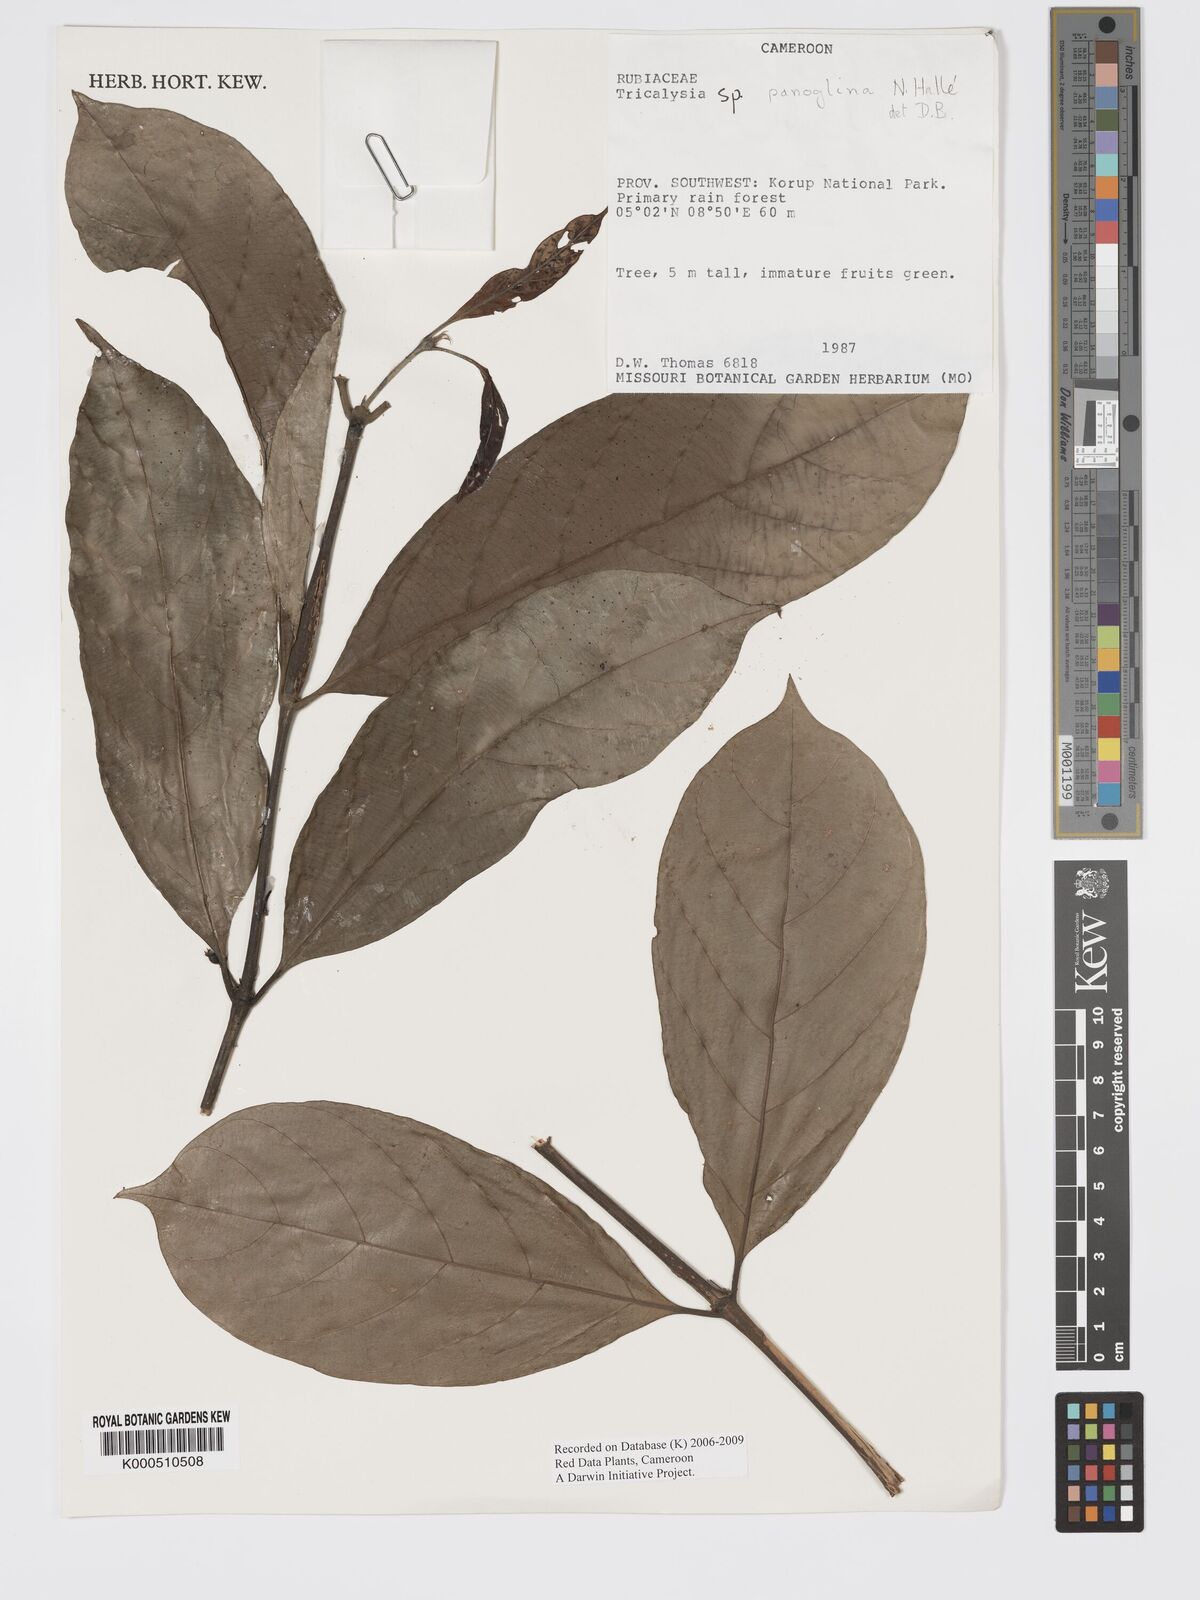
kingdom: Plantae
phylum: Tracheophyta
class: Magnoliopsida
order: Gentianales
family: Rubiaceae
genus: Tricalysia
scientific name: Tricalysia
